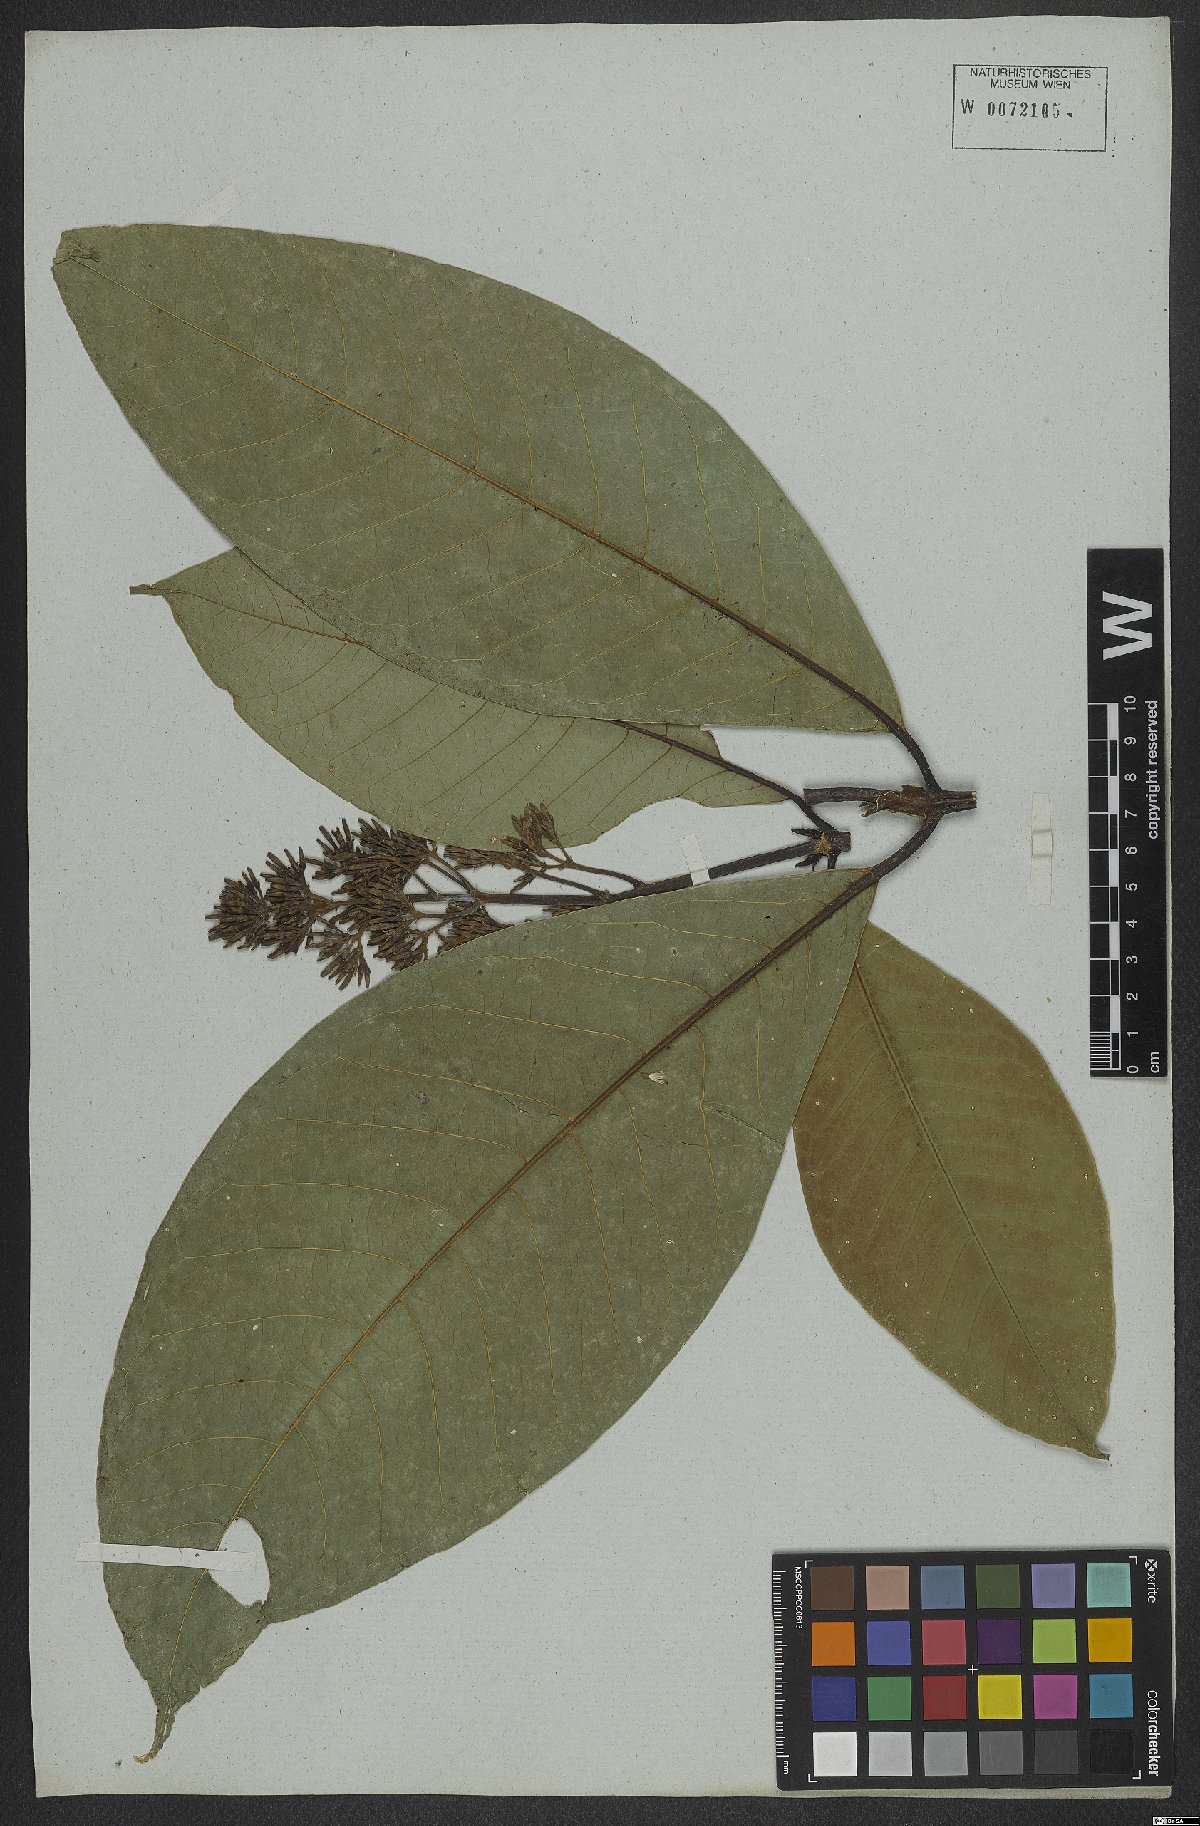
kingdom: Plantae
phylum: Tracheophyta
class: Magnoliopsida
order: Gentianales
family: Rubiaceae
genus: Coussarea
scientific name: Coussarea nemoralis
